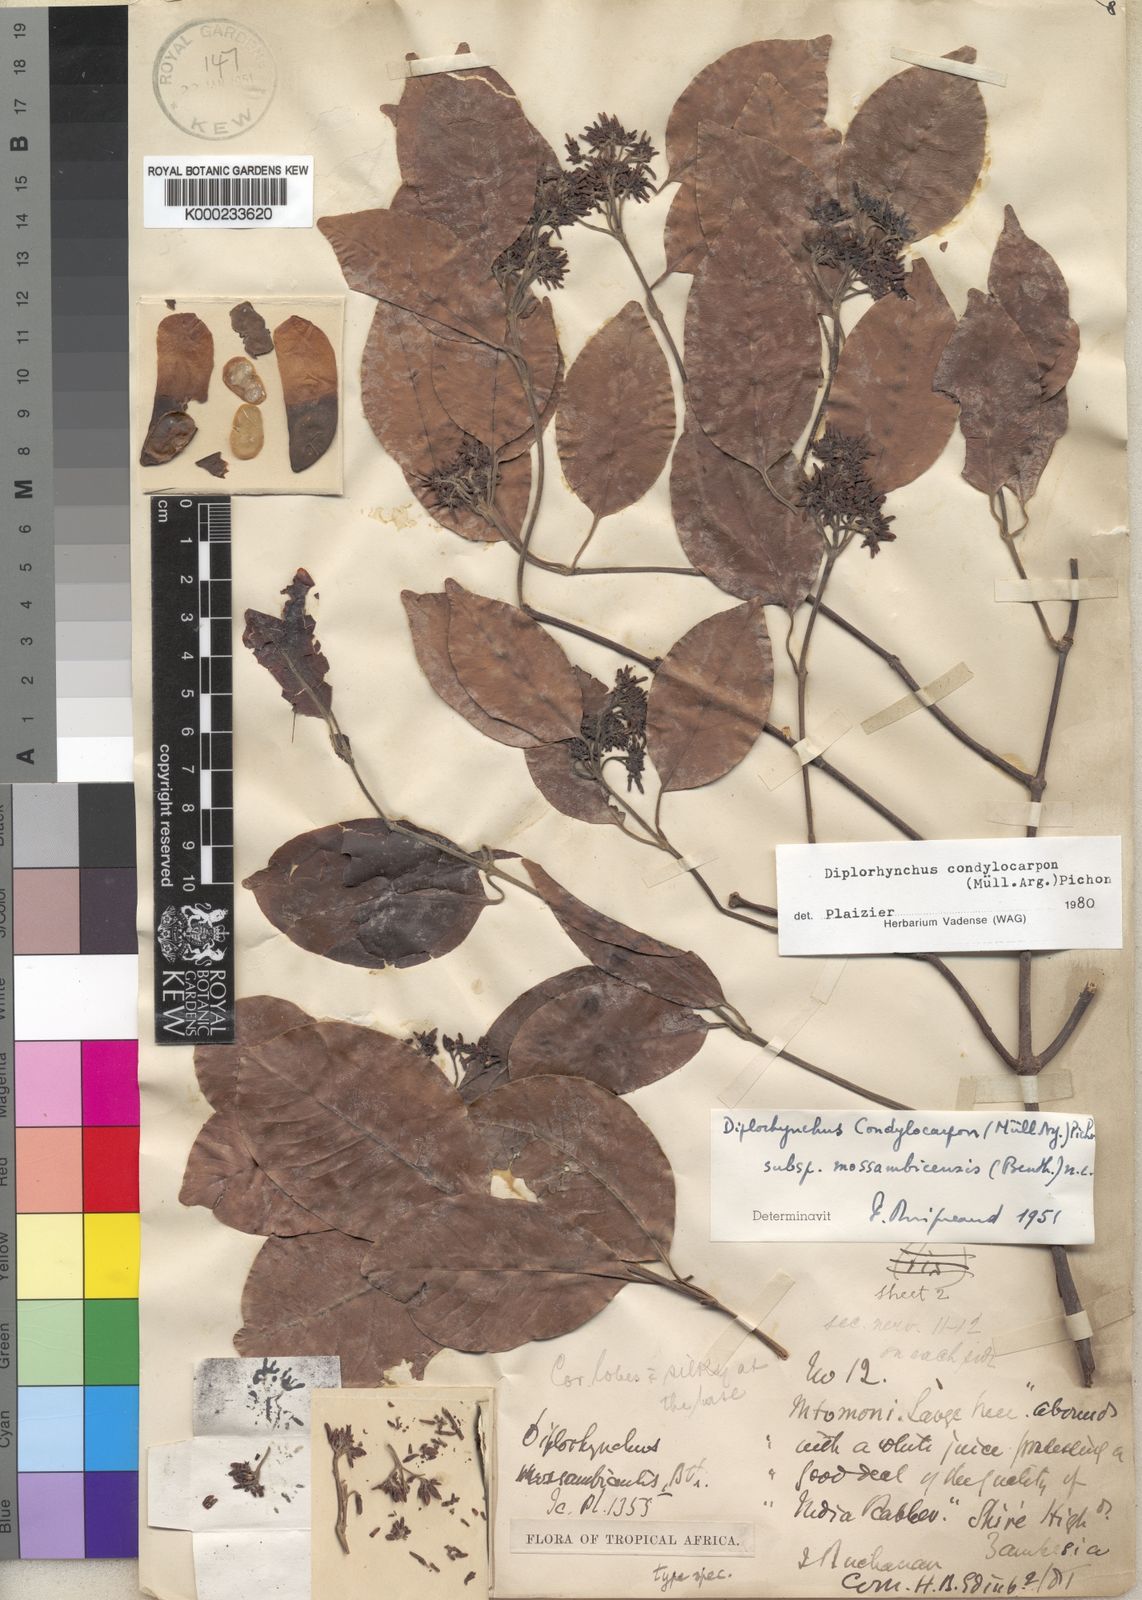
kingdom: Plantae
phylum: Tracheophyta
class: Magnoliopsida
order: Gentianales
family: Apocynaceae
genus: Diplorhynchus
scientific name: Diplorhynchus
